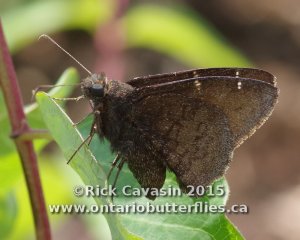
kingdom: Animalia
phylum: Arthropoda
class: Insecta
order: Lepidoptera
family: Hesperiidae
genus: Autochton
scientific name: Autochton
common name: Northern Cloudywing
